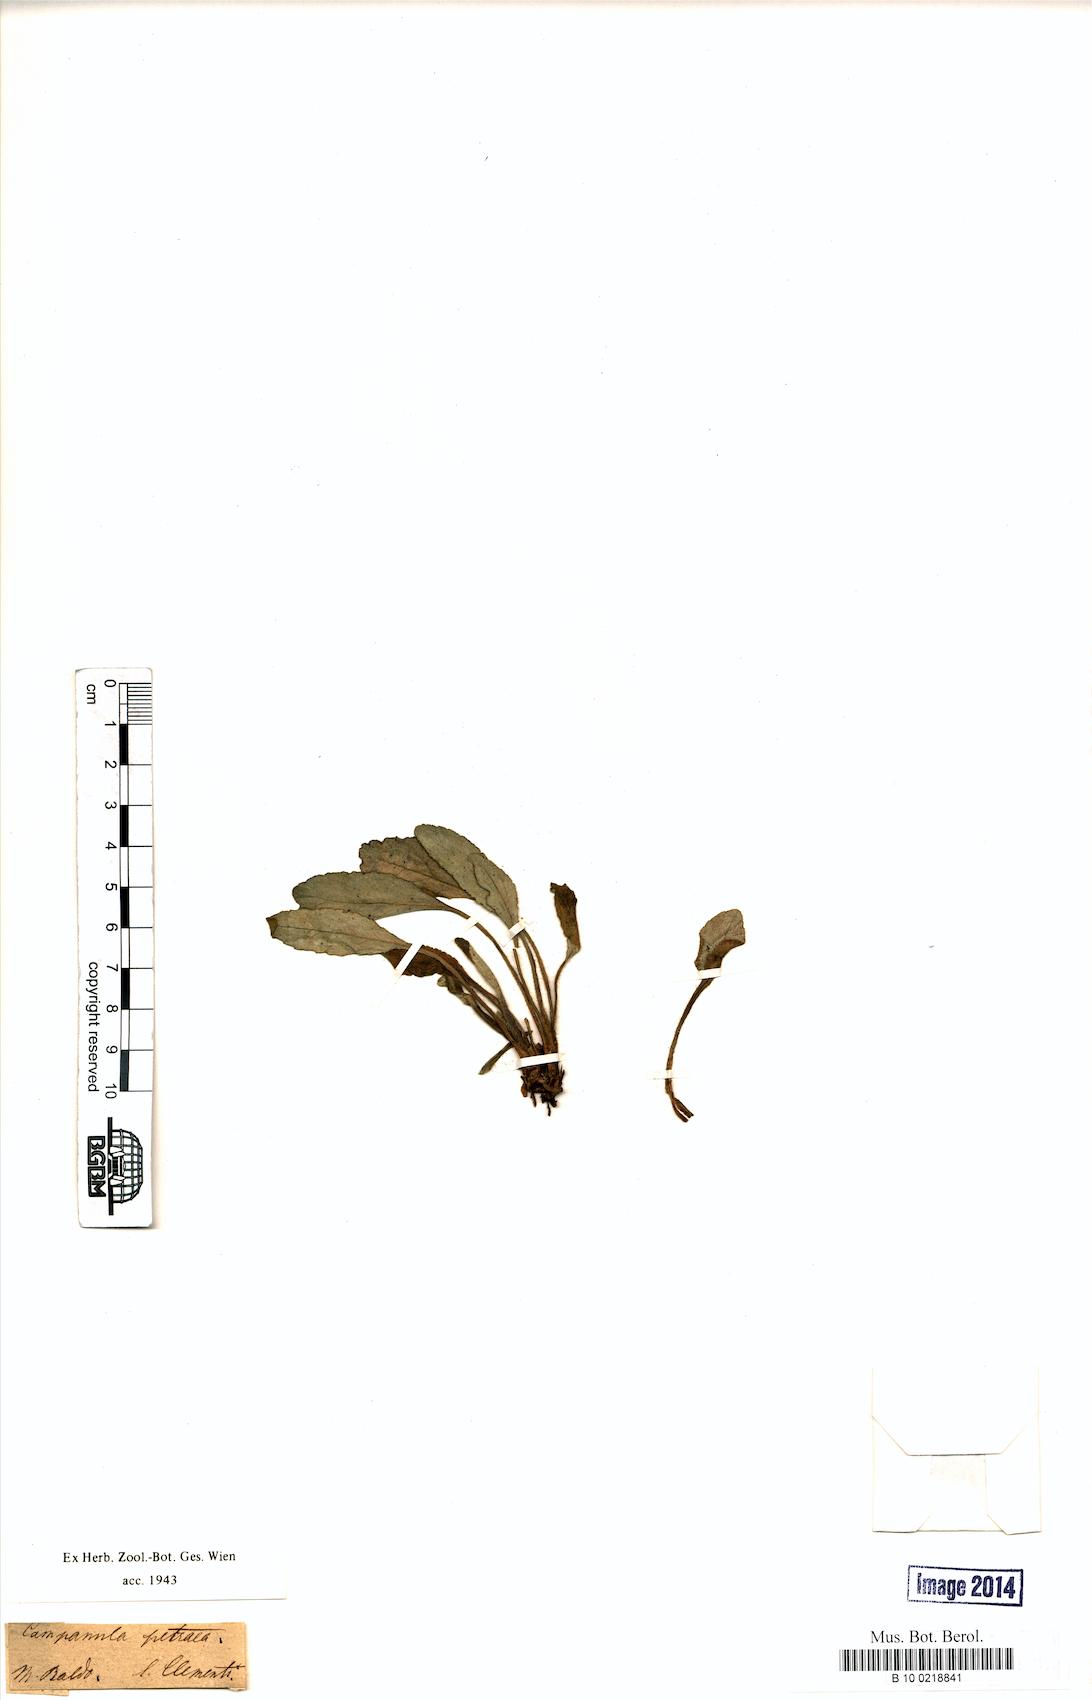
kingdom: Plantae
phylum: Tracheophyta
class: Magnoliopsida
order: Asterales
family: Campanulaceae
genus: Campanula
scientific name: Campanula petraea
